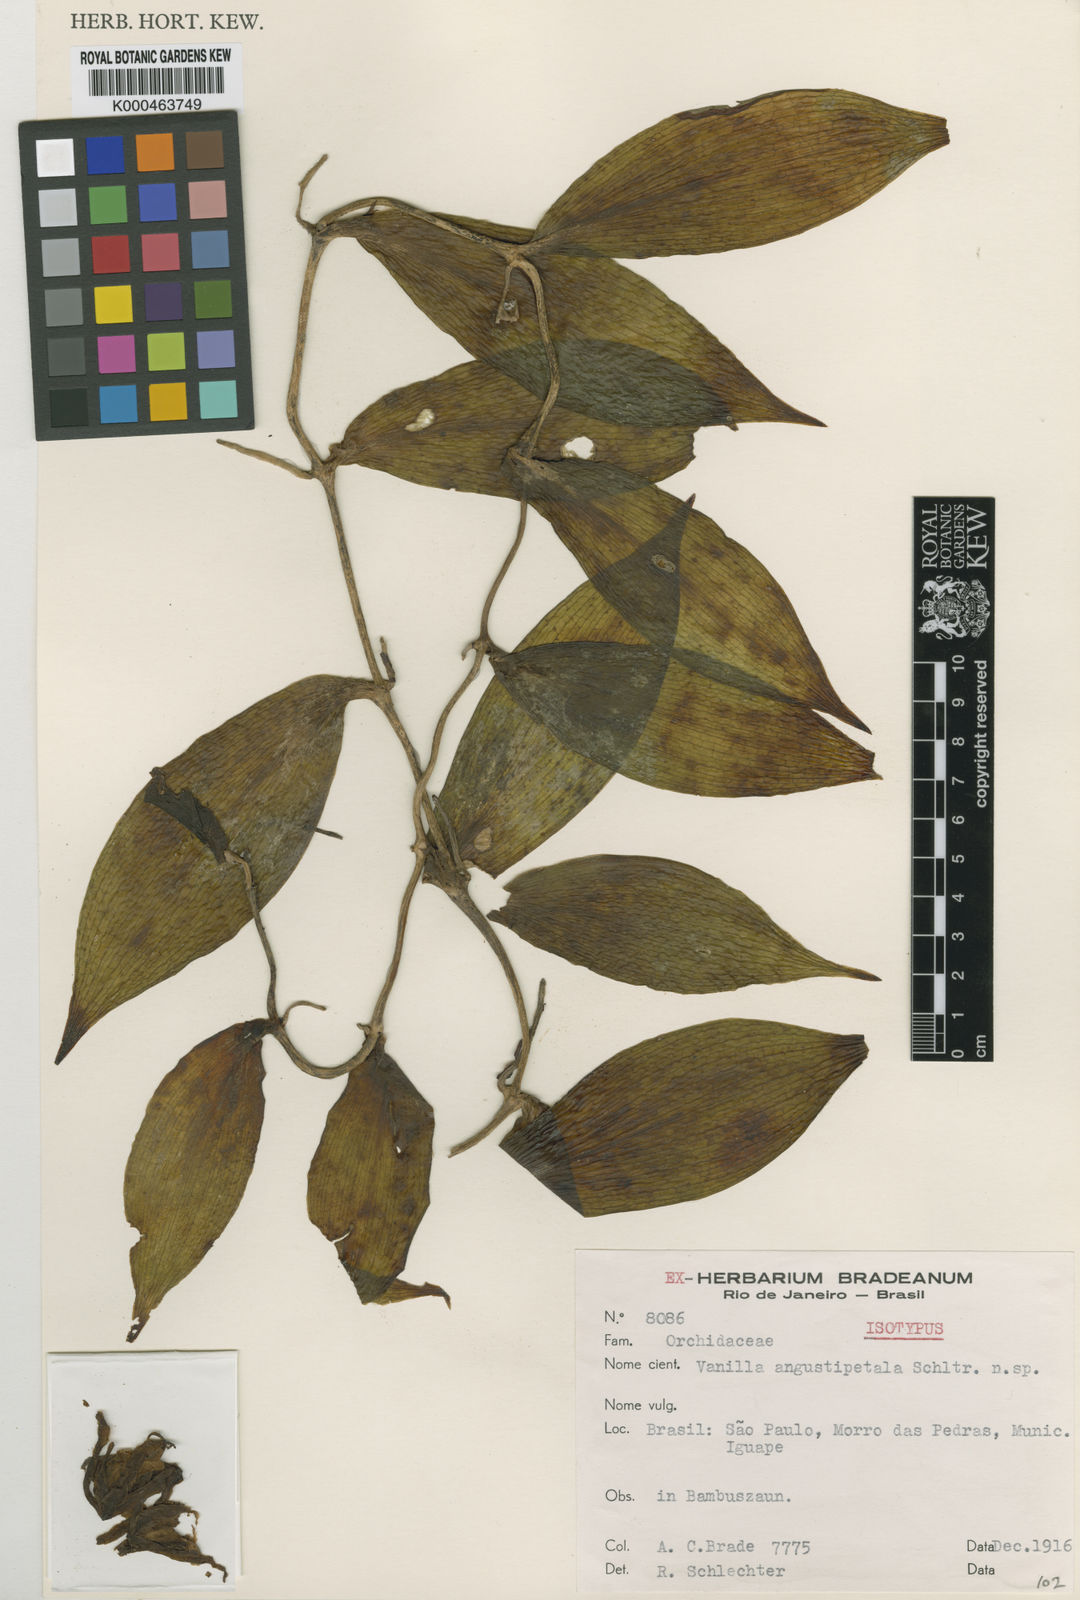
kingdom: Plantae
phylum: Tracheophyta
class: Liliopsida
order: Asparagales
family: Orchidaceae
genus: Vanilla
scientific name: Vanilla angustipetala
